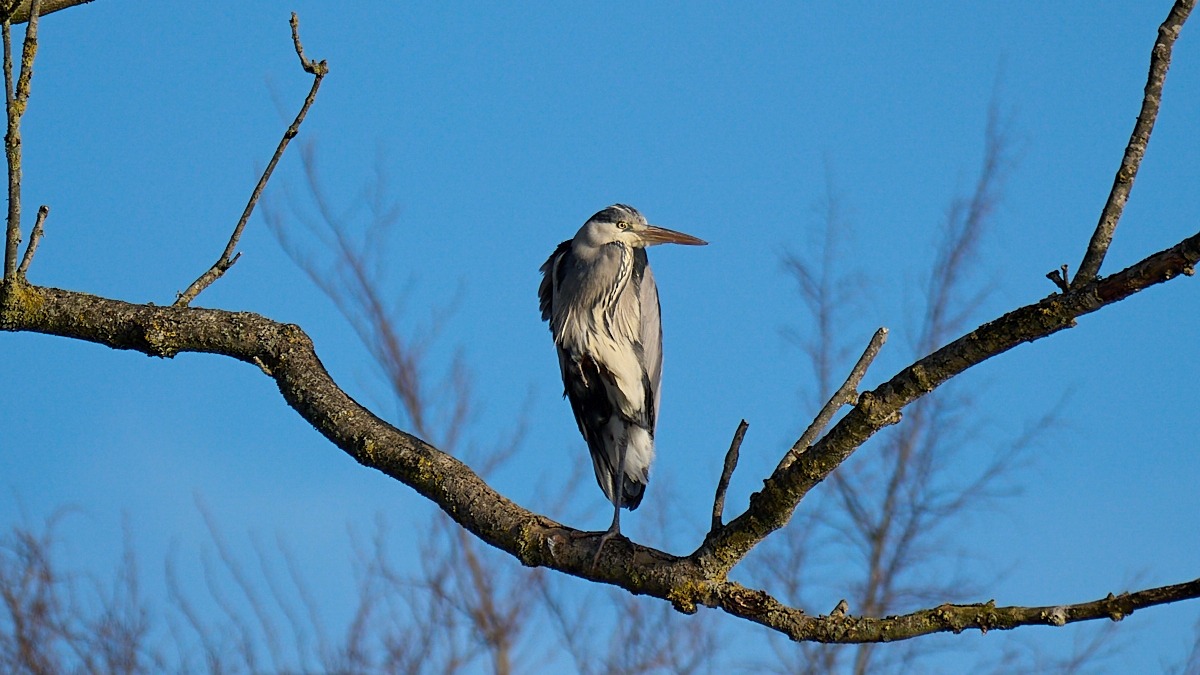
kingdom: Animalia
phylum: Chordata
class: Aves
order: Pelecaniformes
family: Ardeidae
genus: Ardea
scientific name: Ardea cinerea
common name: Fiskehejre
